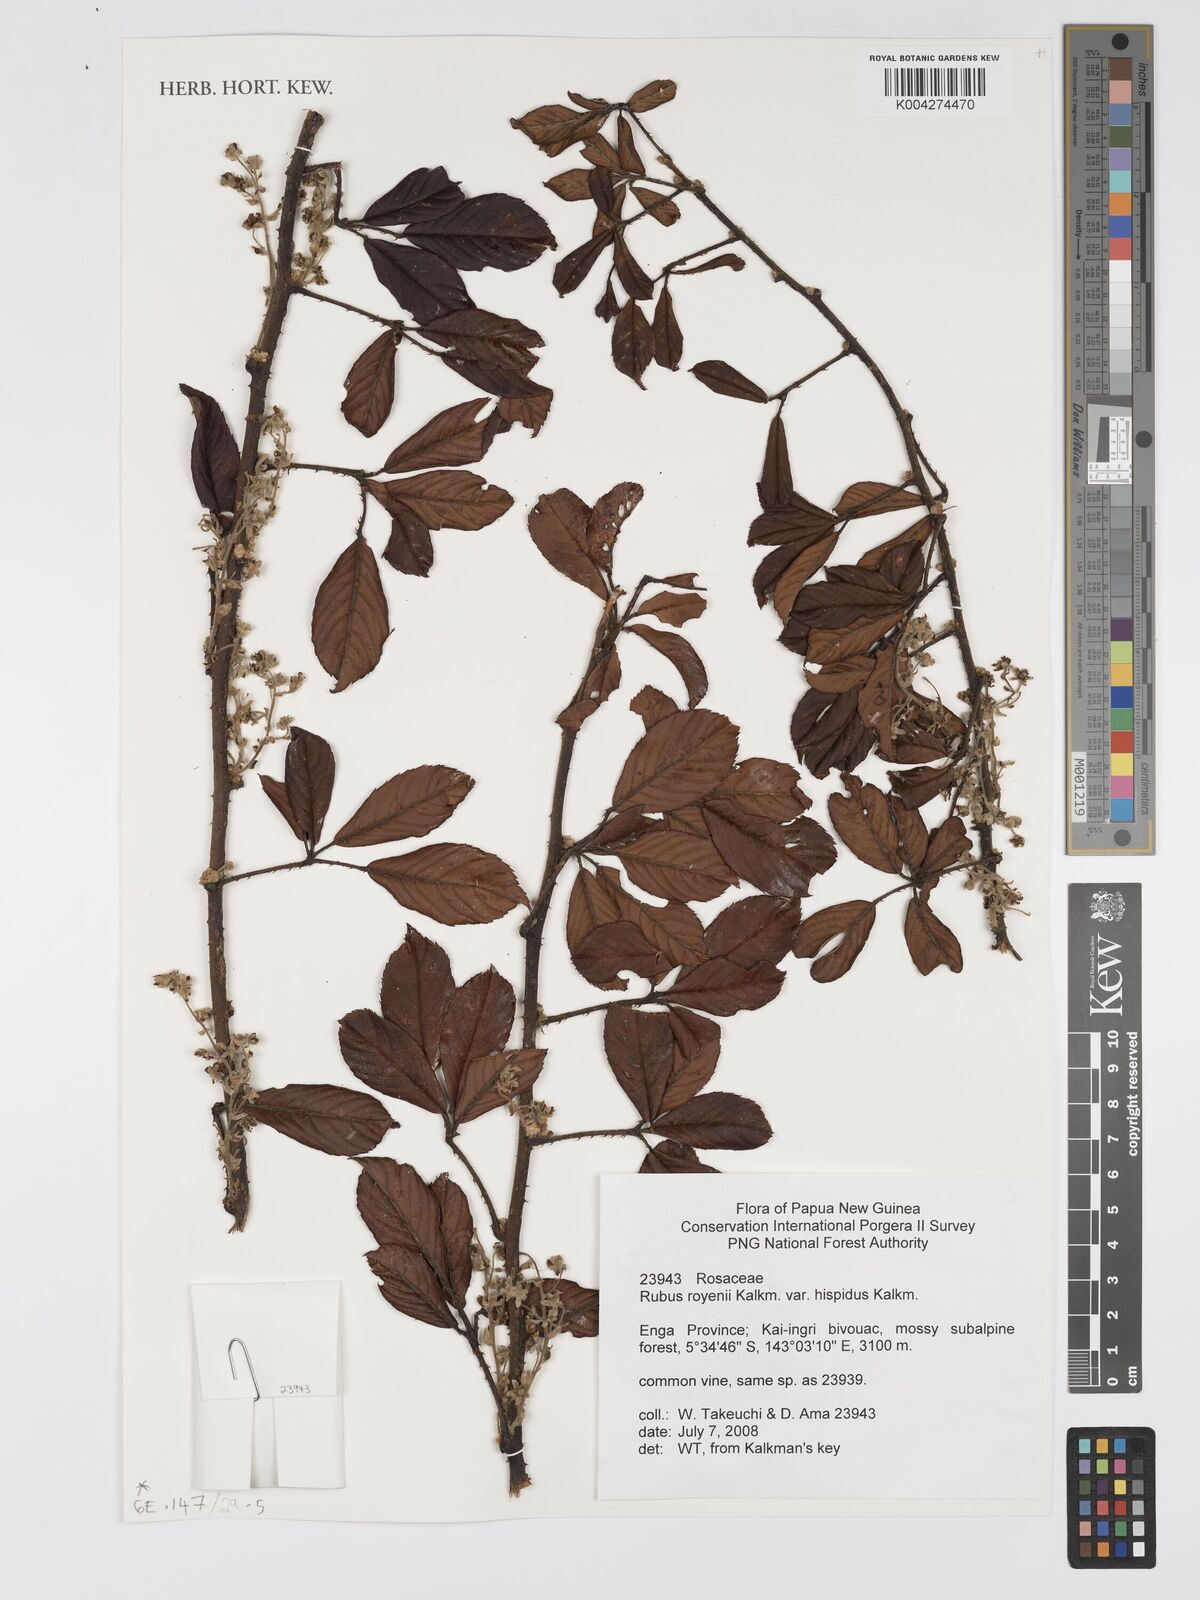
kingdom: Plantae
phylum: Tracheophyta
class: Magnoliopsida
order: Rosales
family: Rosaceae
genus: Rubus
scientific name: Rubus royenii
